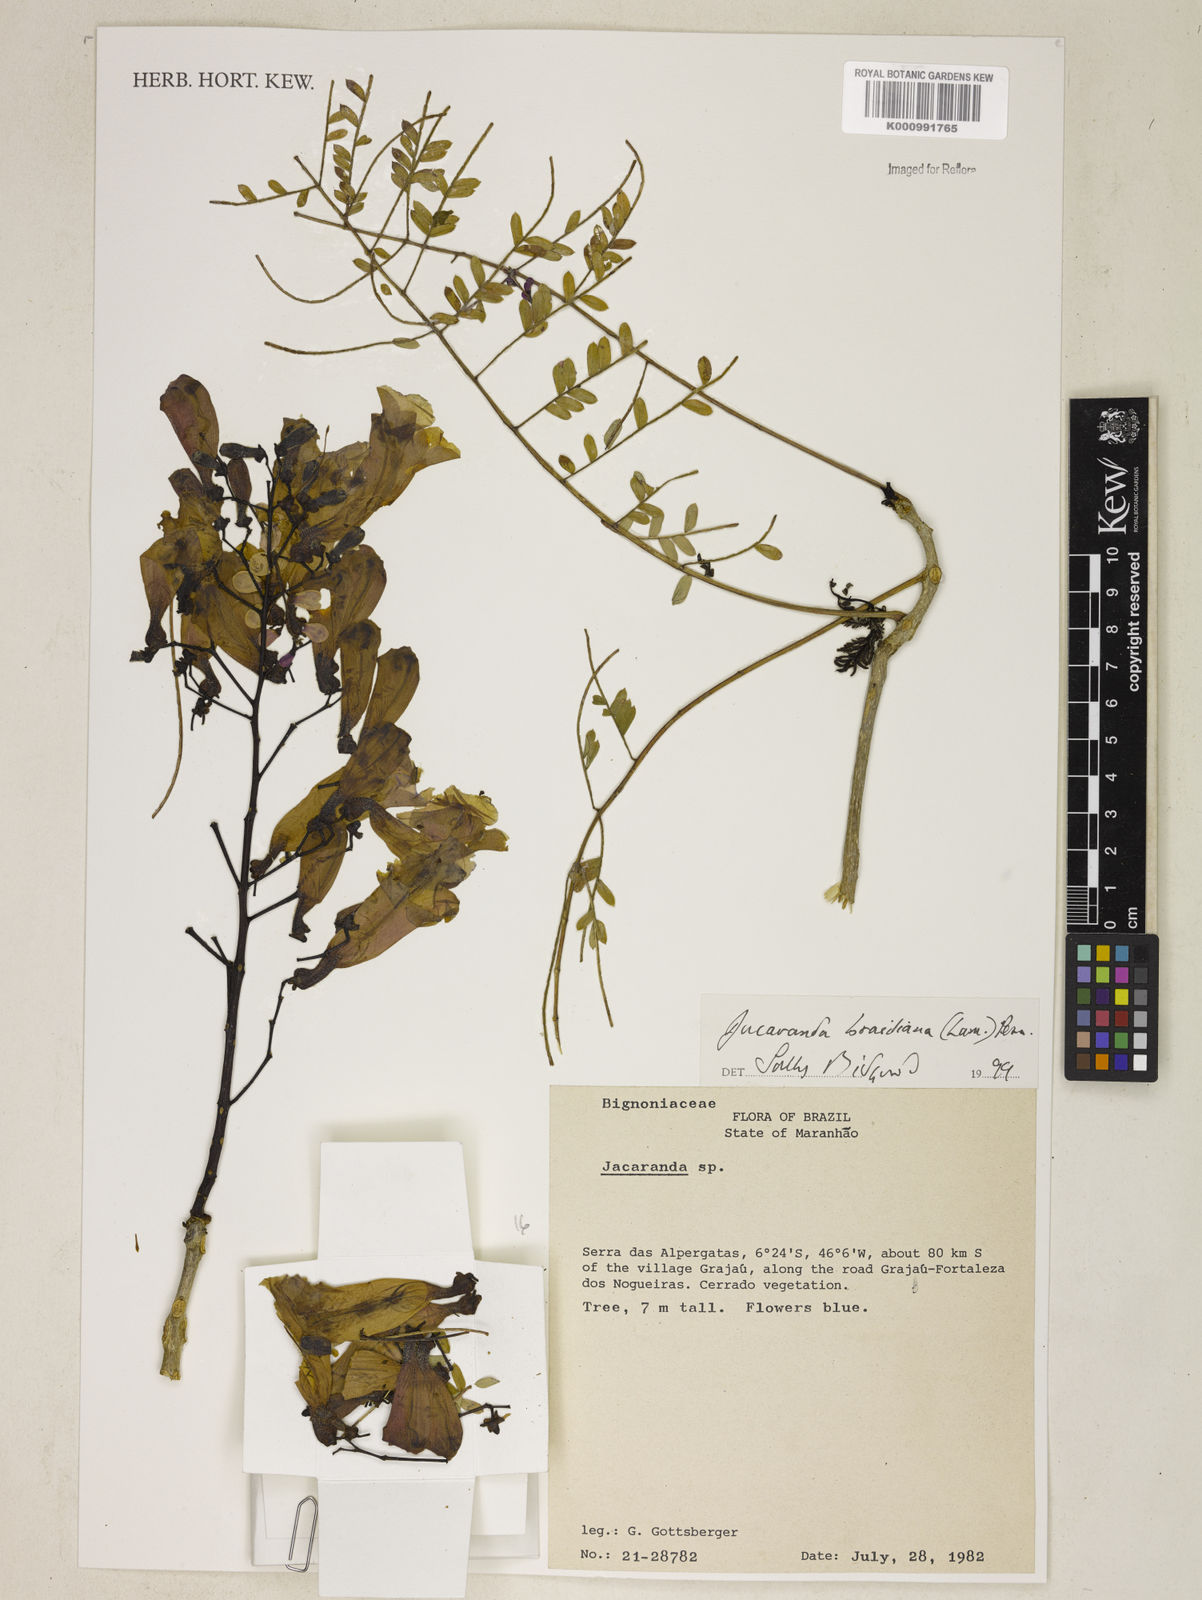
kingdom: Plantae
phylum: Tracheophyta
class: Magnoliopsida
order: Lamiales
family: Bignoniaceae
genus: Jacaranda
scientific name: Jacaranda brasiliana
